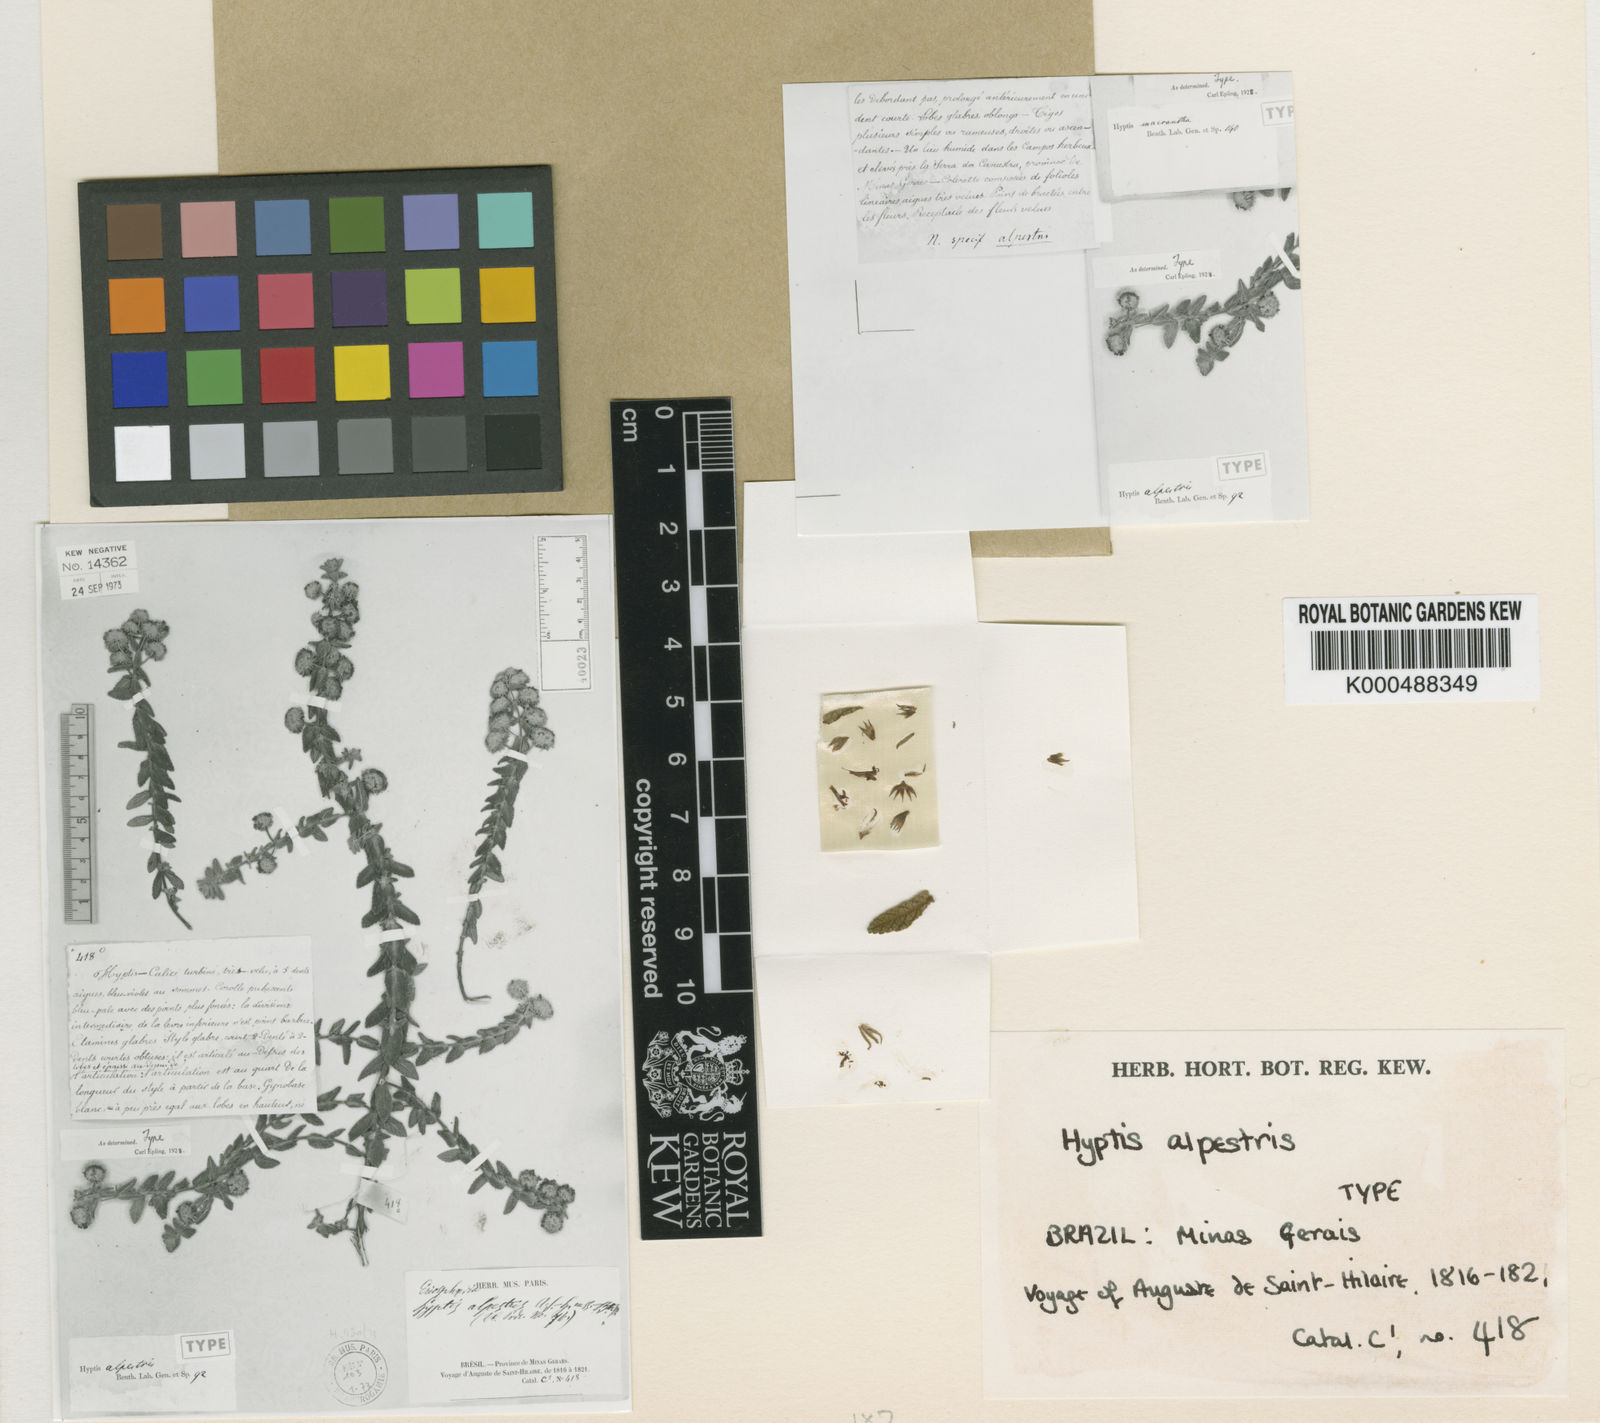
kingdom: Plantae
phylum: Tracheophyta
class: Magnoliopsida
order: Lamiales
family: Lamiaceae
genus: Hyptis
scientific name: Hyptis alpestris
